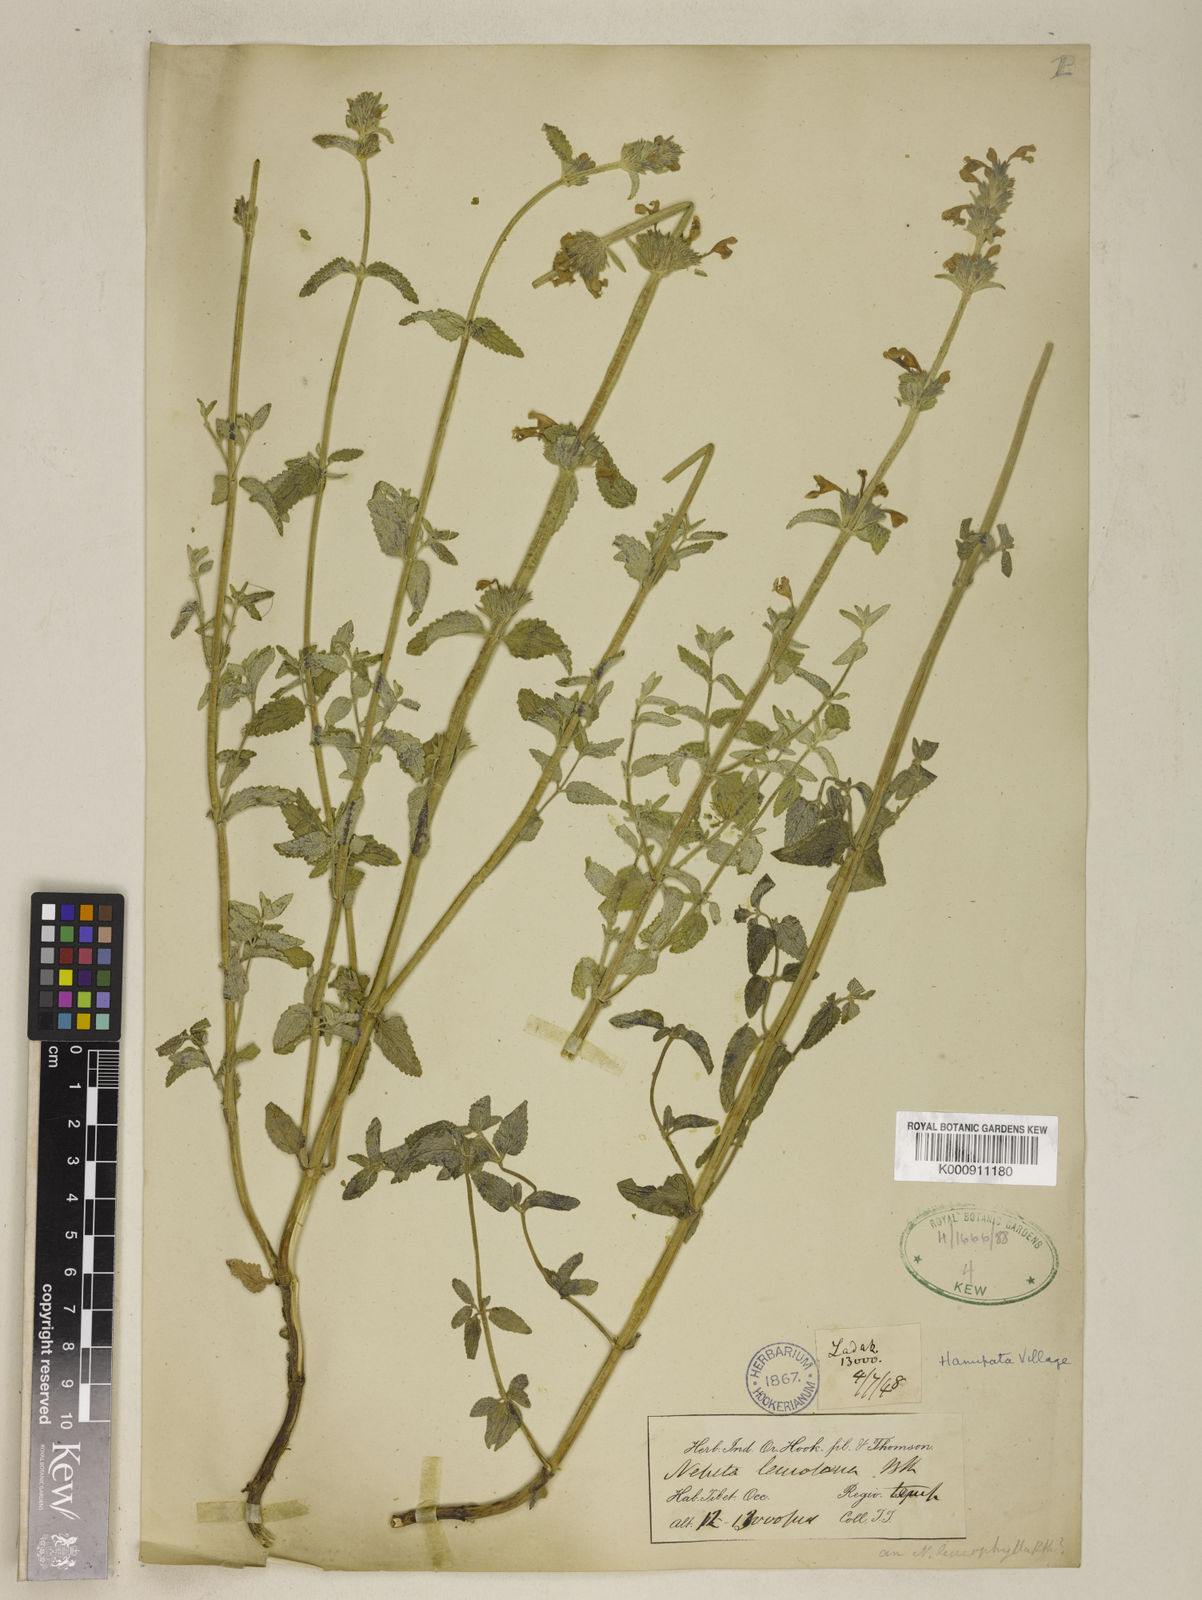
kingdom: Plantae
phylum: Tracheophyta
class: Magnoliopsida
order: Lamiales
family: Lamiaceae
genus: Nepeta
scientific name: Nepeta leucolaena
